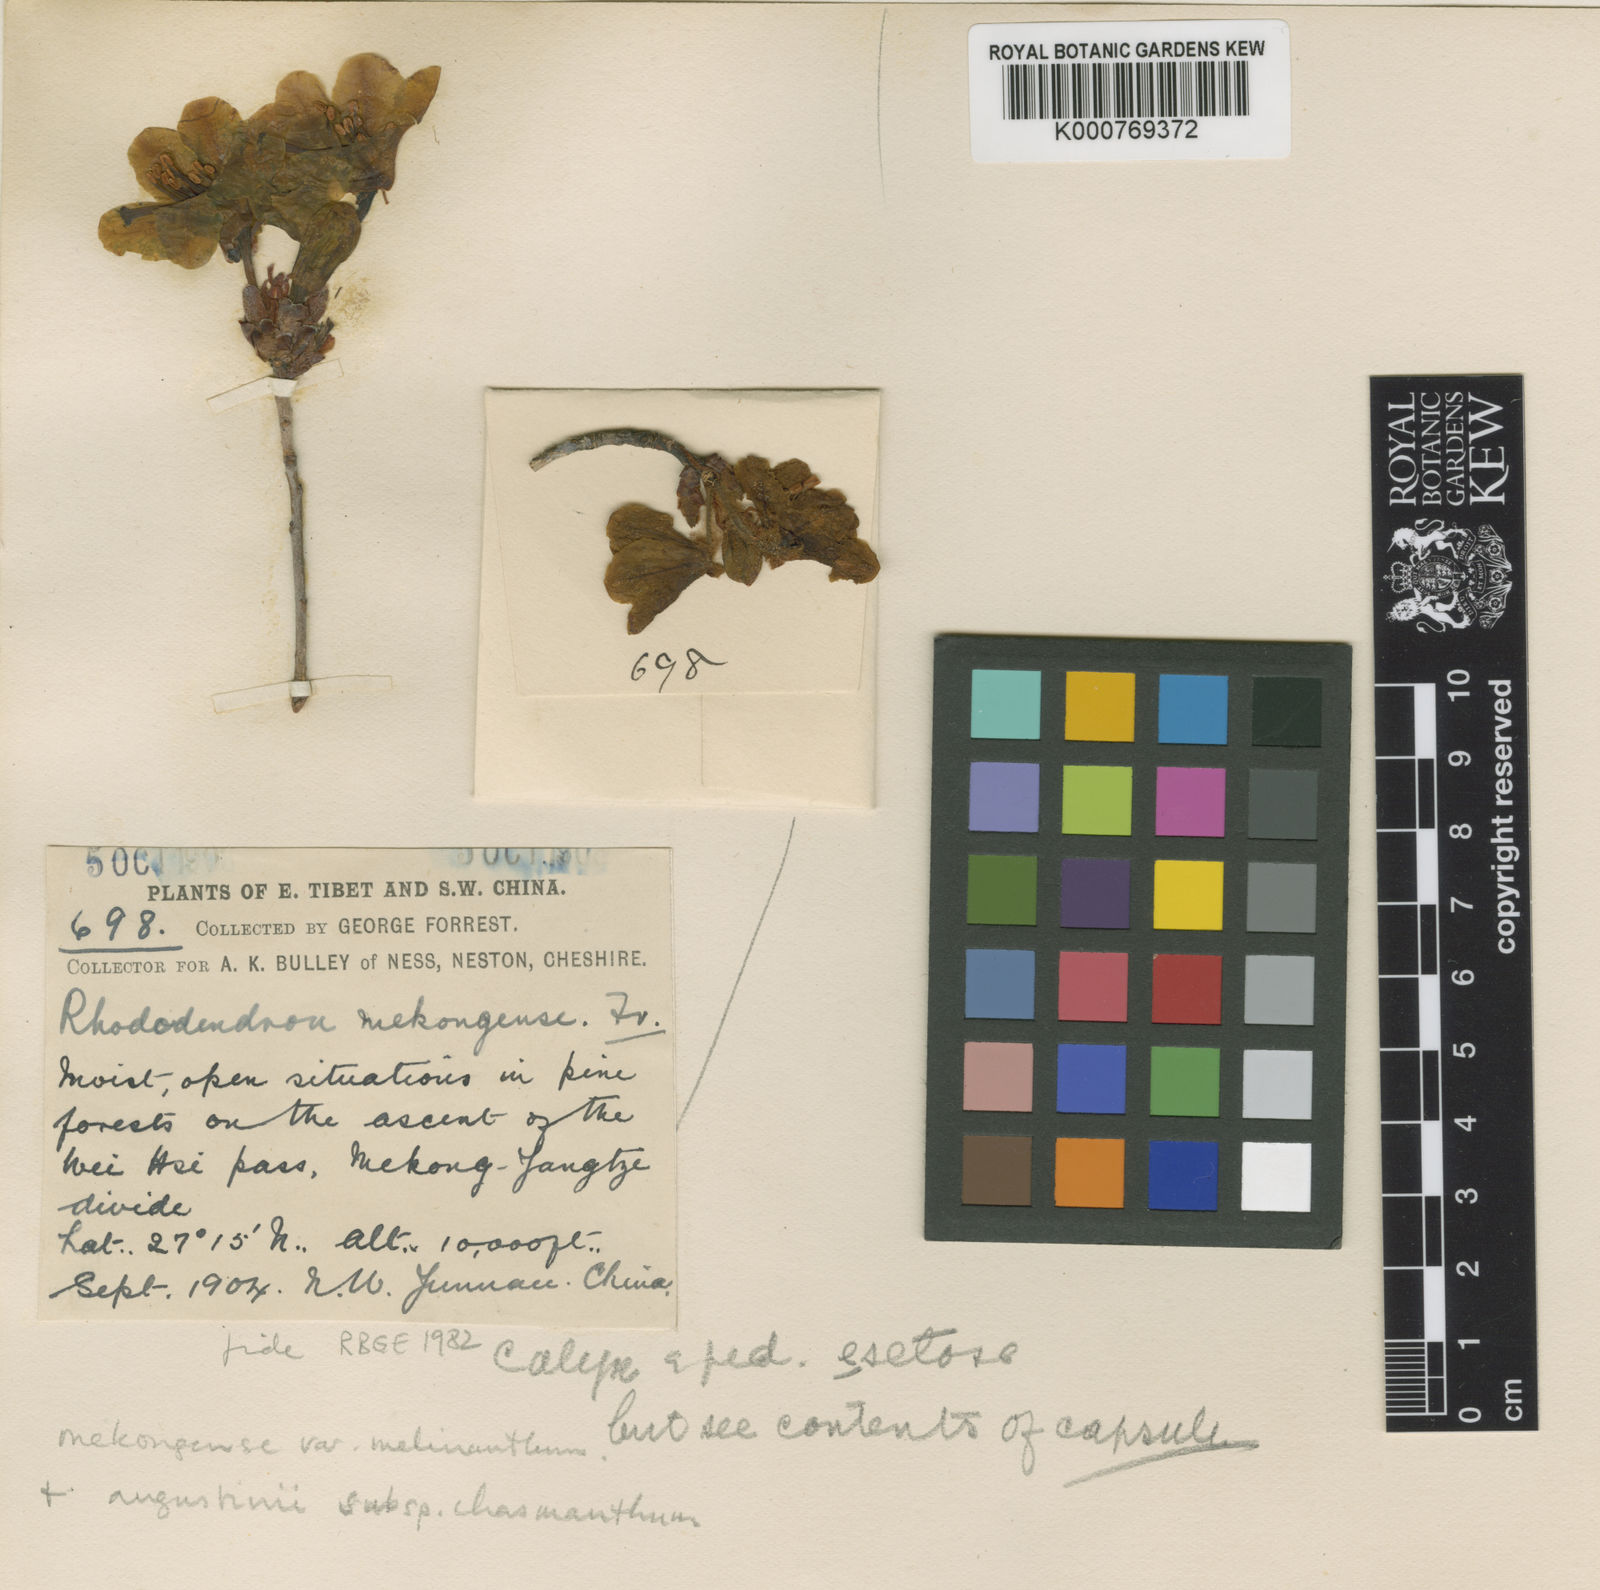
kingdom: Plantae
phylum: Tracheophyta
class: Magnoliopsida
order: Ericales
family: Ericaceae
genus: Rhododendron
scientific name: Rhododendron mekongense
